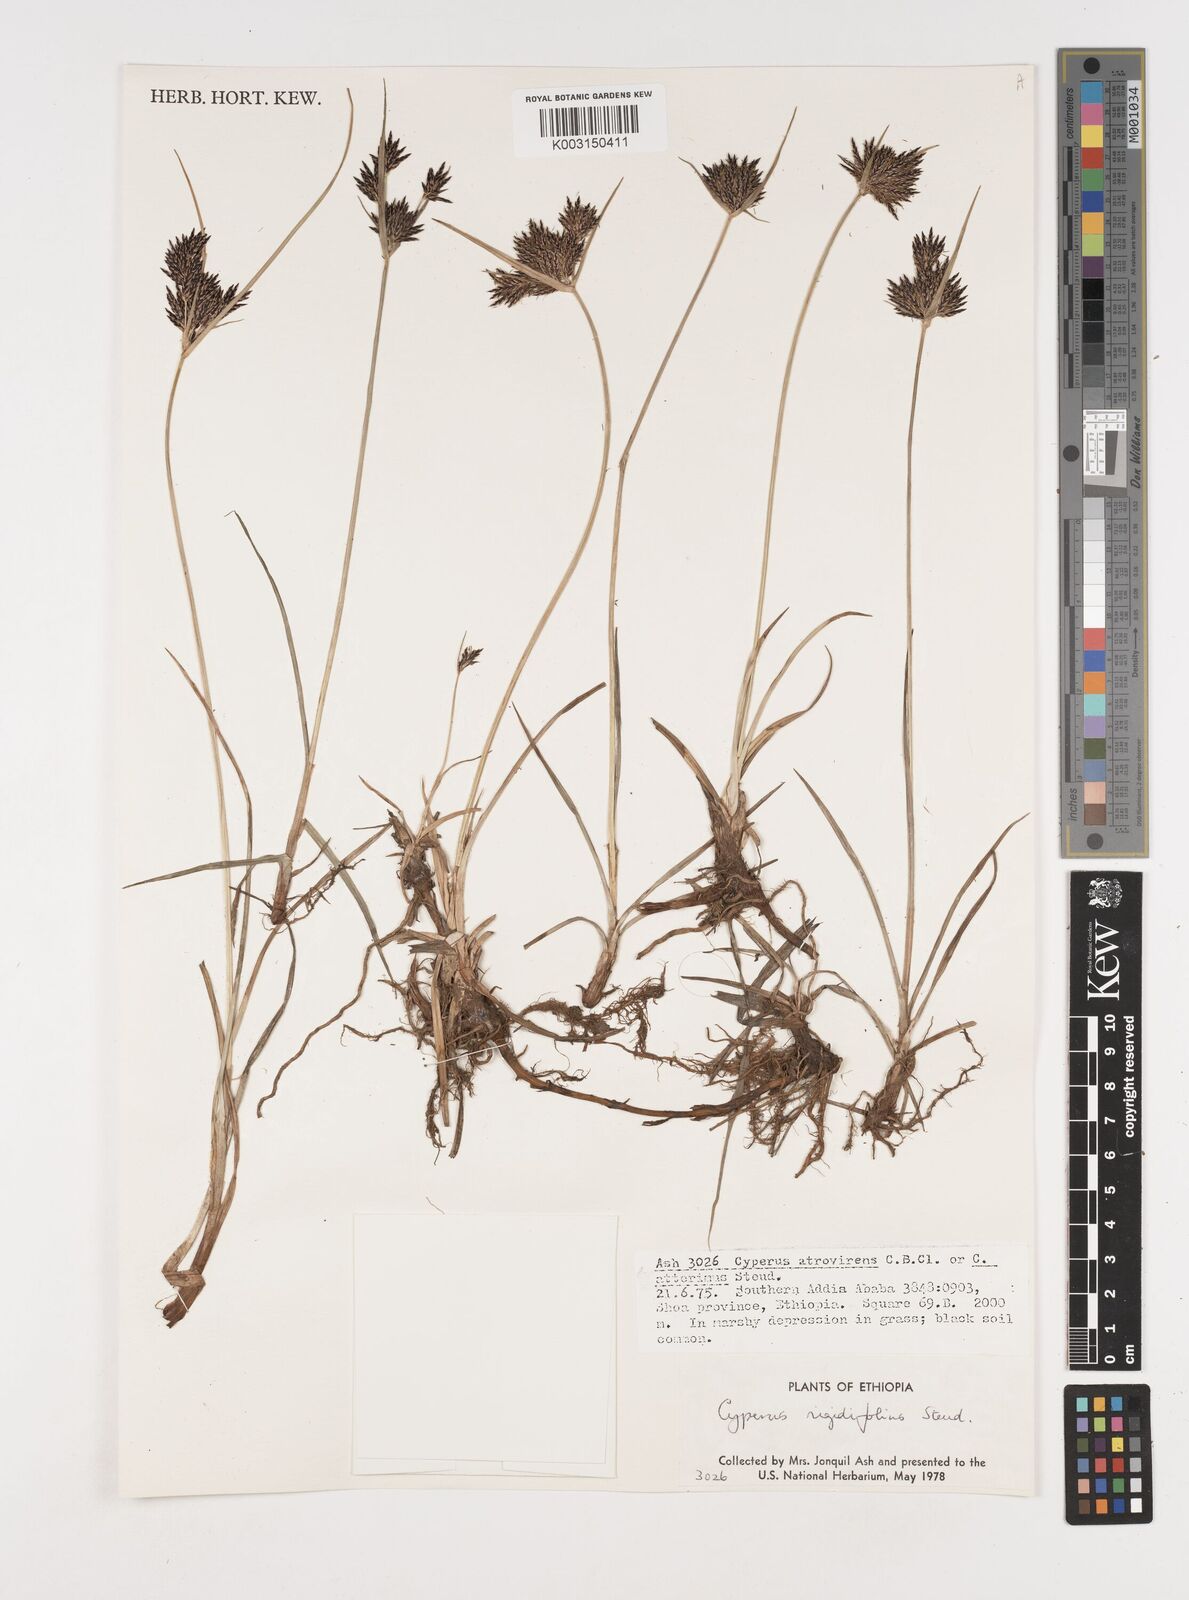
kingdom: Plantae
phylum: Tracheophyta
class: Liliopsida
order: Poales
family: Cyperaceae
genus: Cyperus
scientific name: Cyperus rigidifolius
